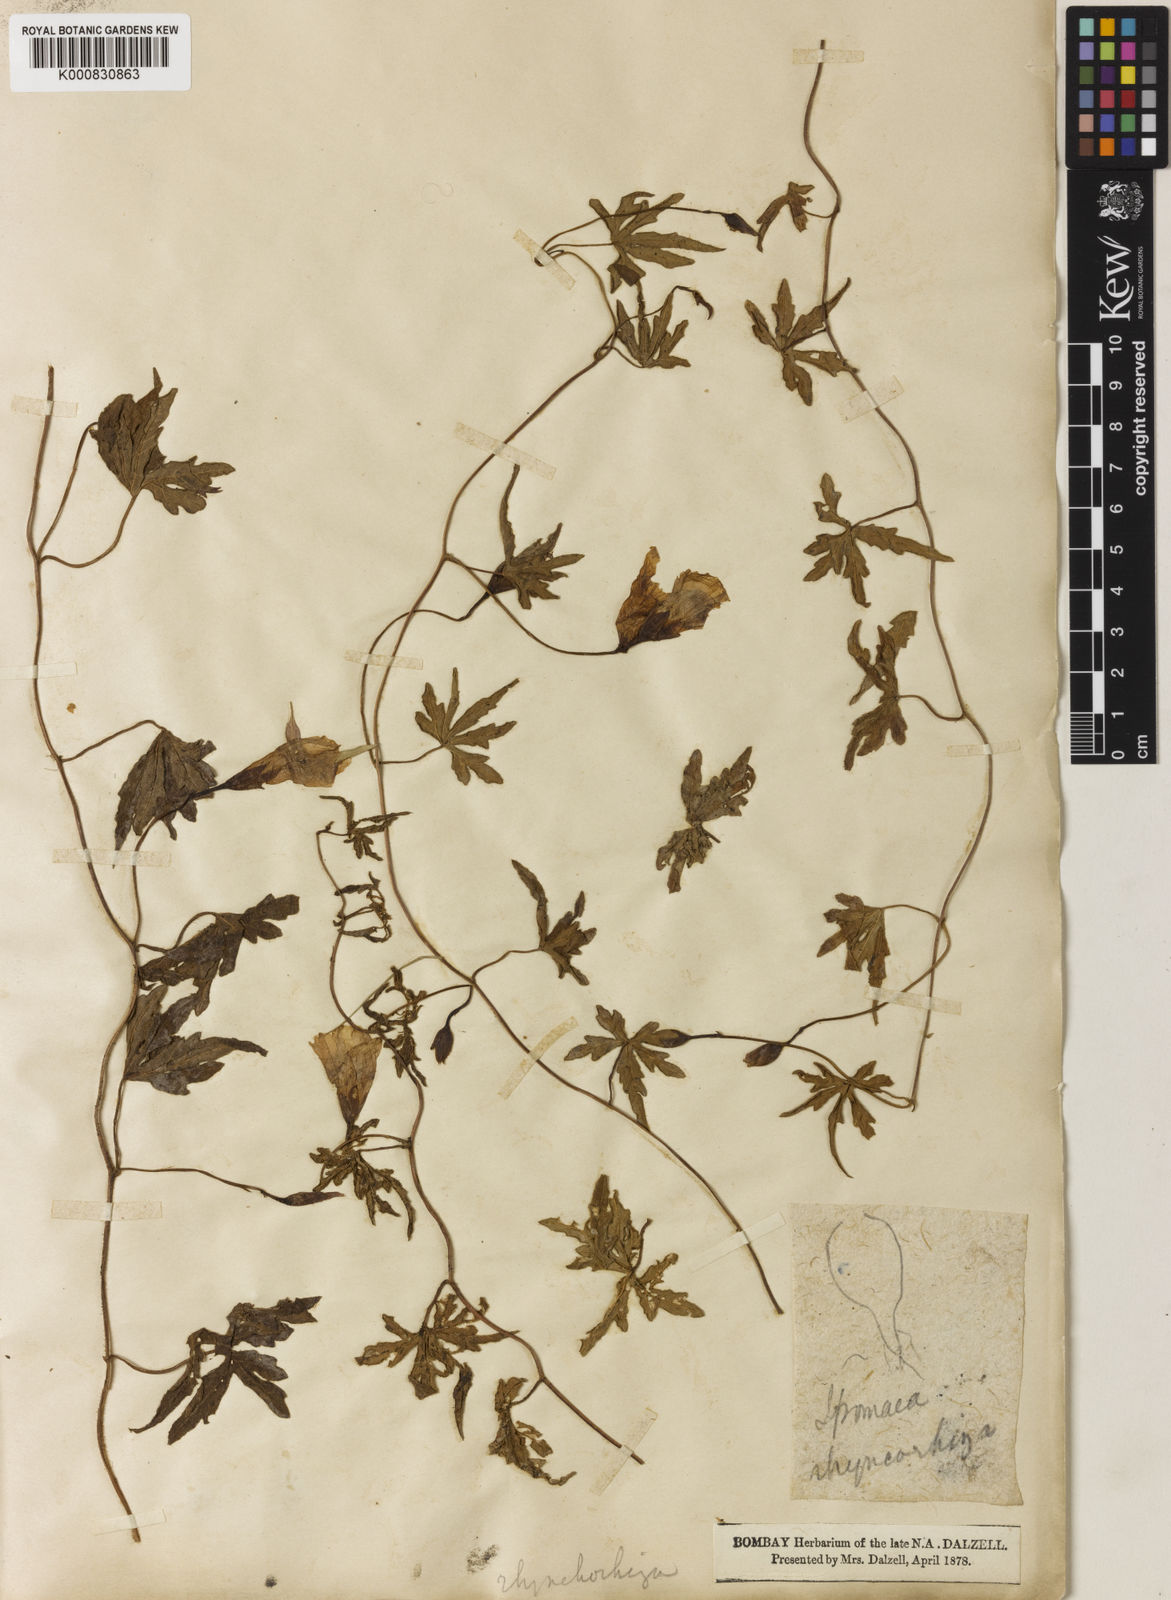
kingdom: Plantae
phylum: Tracheophyta
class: Magnoliopsida
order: Solanales
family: Convolvulaceae
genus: Merremia
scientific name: Merremia
